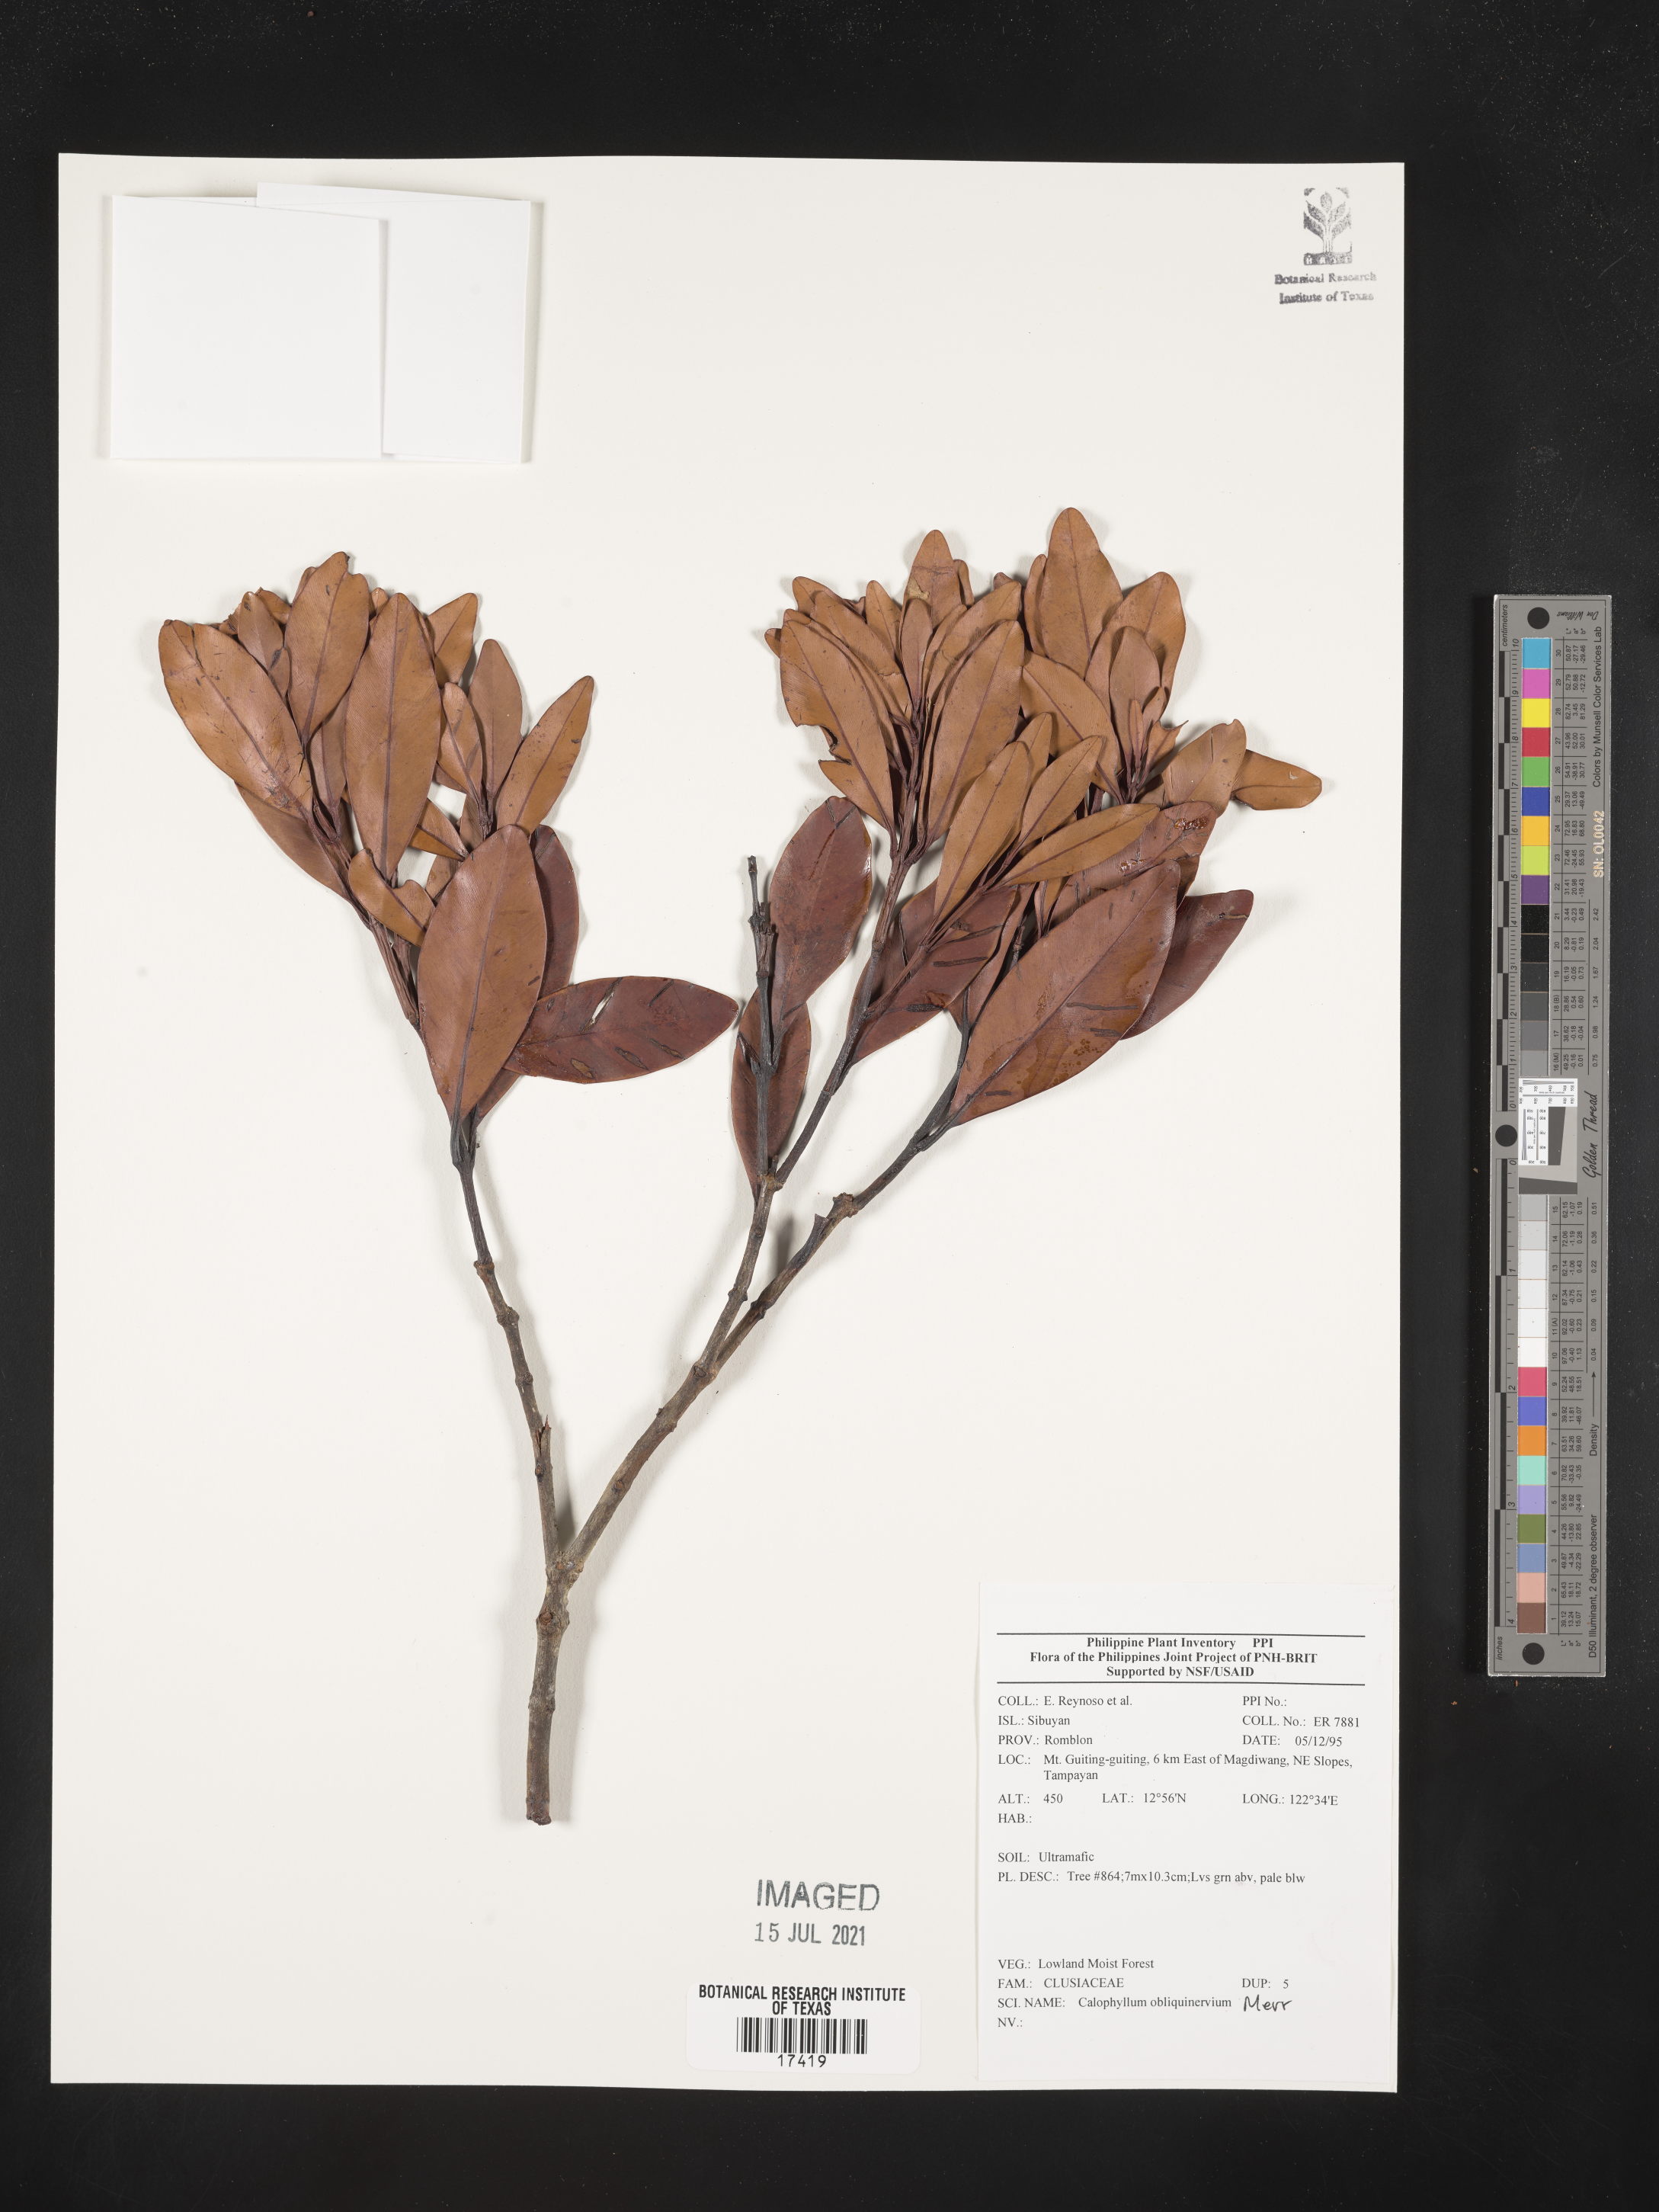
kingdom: Plantae
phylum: Tracheophyta
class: Magnoliopsida
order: Malpighiales
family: Calophyllaceae
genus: Calophyllum
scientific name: Calophyllum obliquinervium
